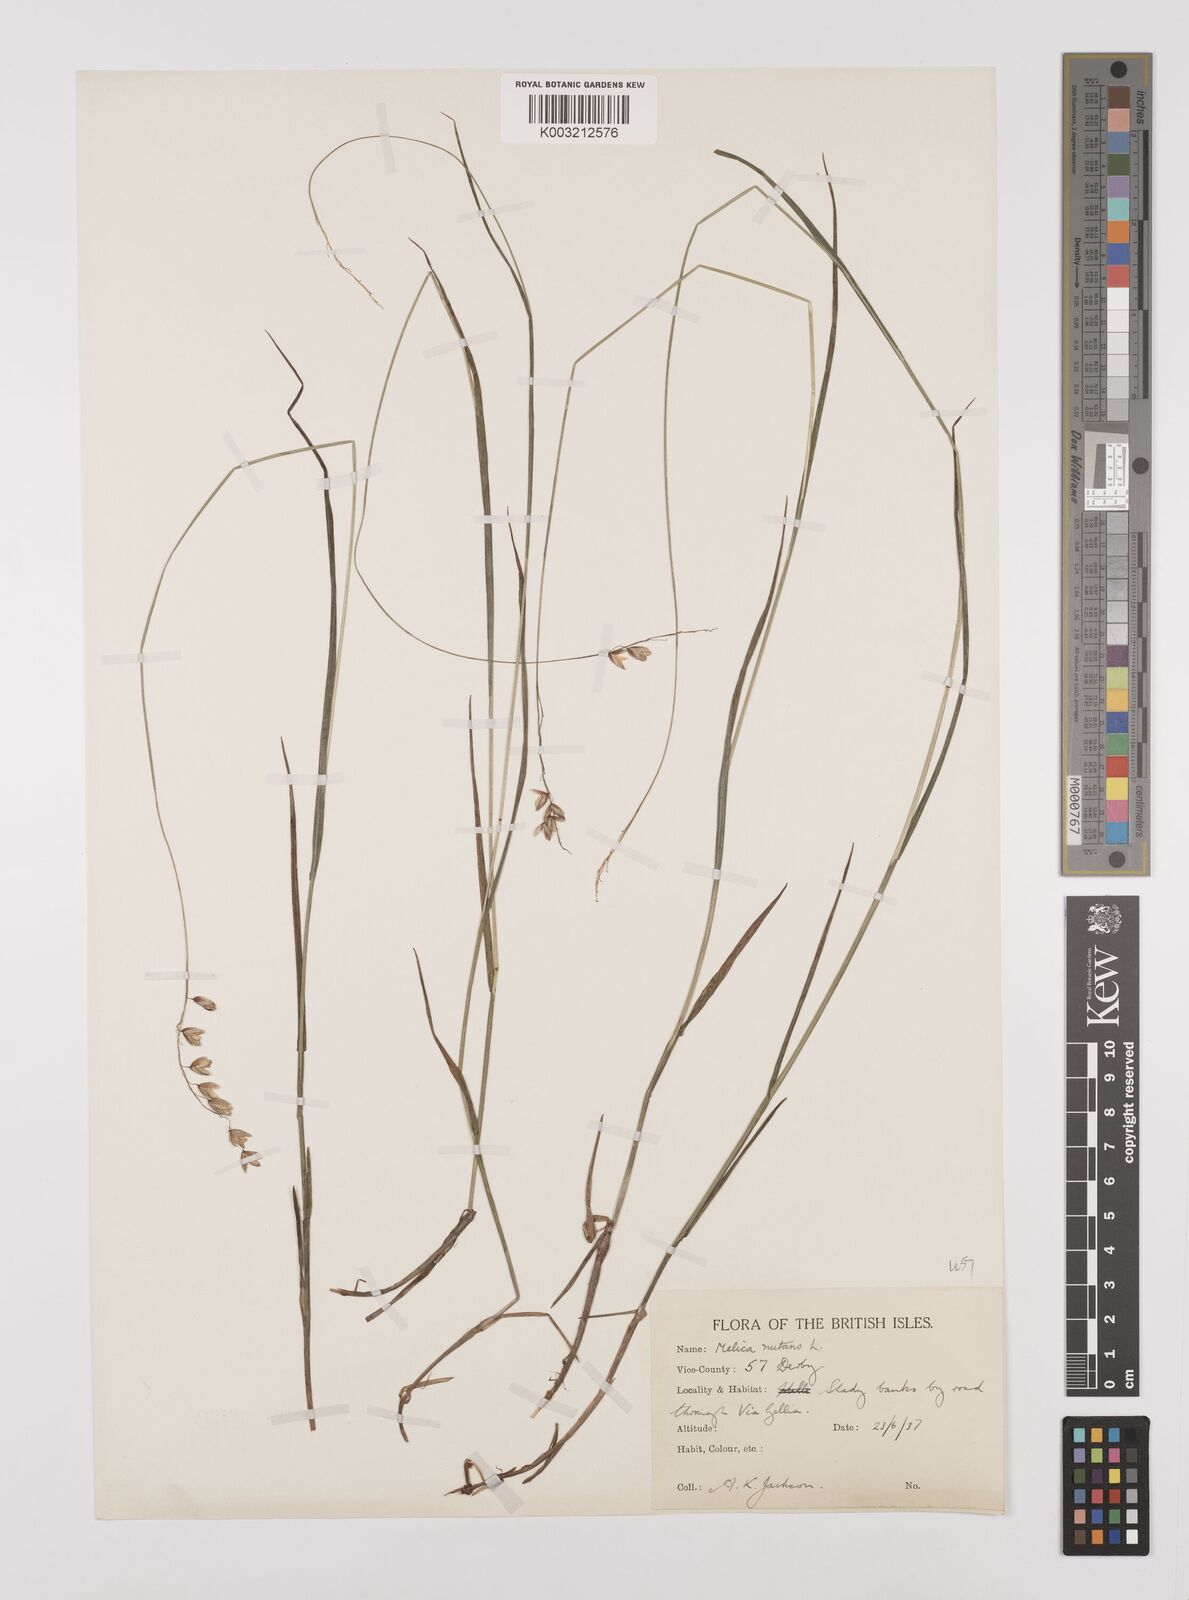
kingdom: Plantae
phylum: Tracheophyta
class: Liliopsida
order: Poales
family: Poaceae
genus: Melica
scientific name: Melica
